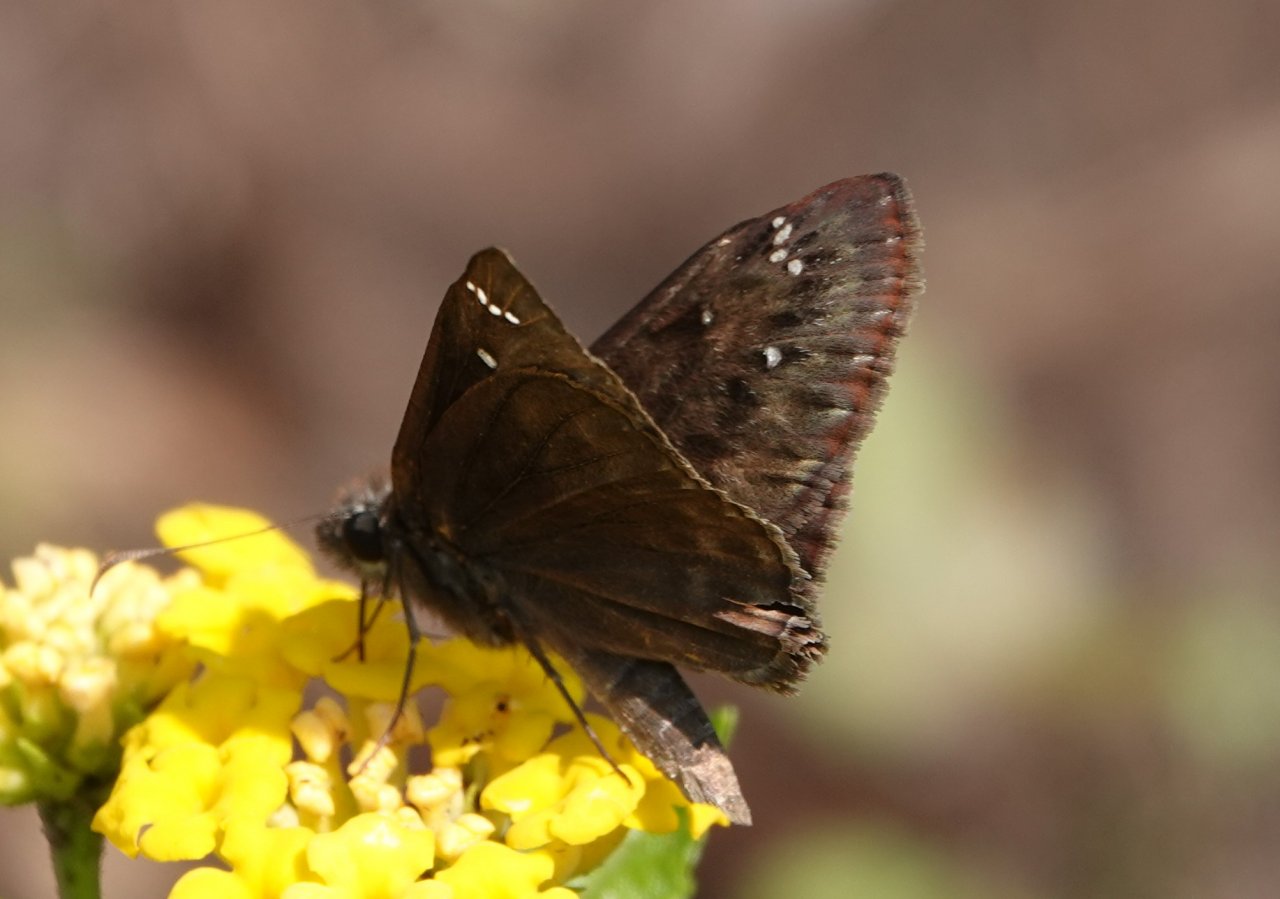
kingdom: Animalia
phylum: Arthropoda
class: Insecta
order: Lepidoptera
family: Hesperiidae
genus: Gesta
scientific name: Gesta
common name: Horace's Duskywing
